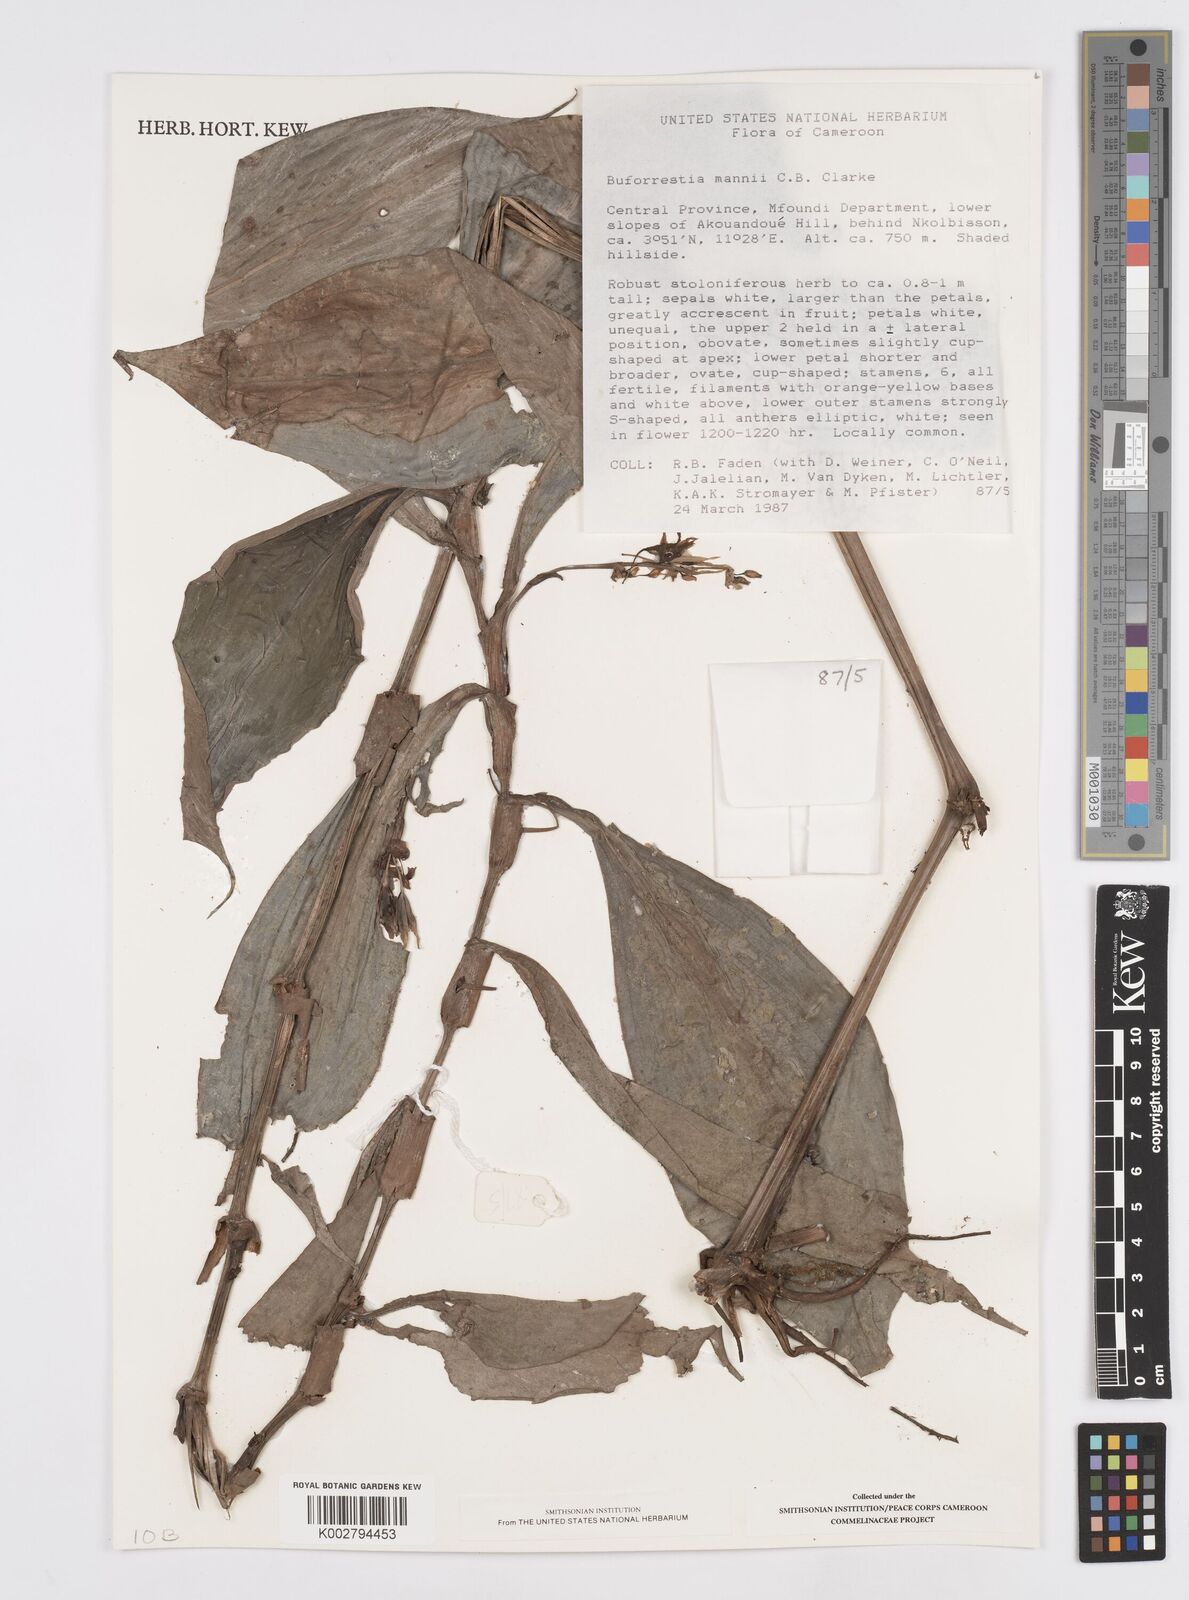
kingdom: Plantae
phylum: Tracheophyta
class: Liliopsida
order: Commelinales
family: Commelinaceae
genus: Buforrestia
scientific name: Buforrestia mannii
